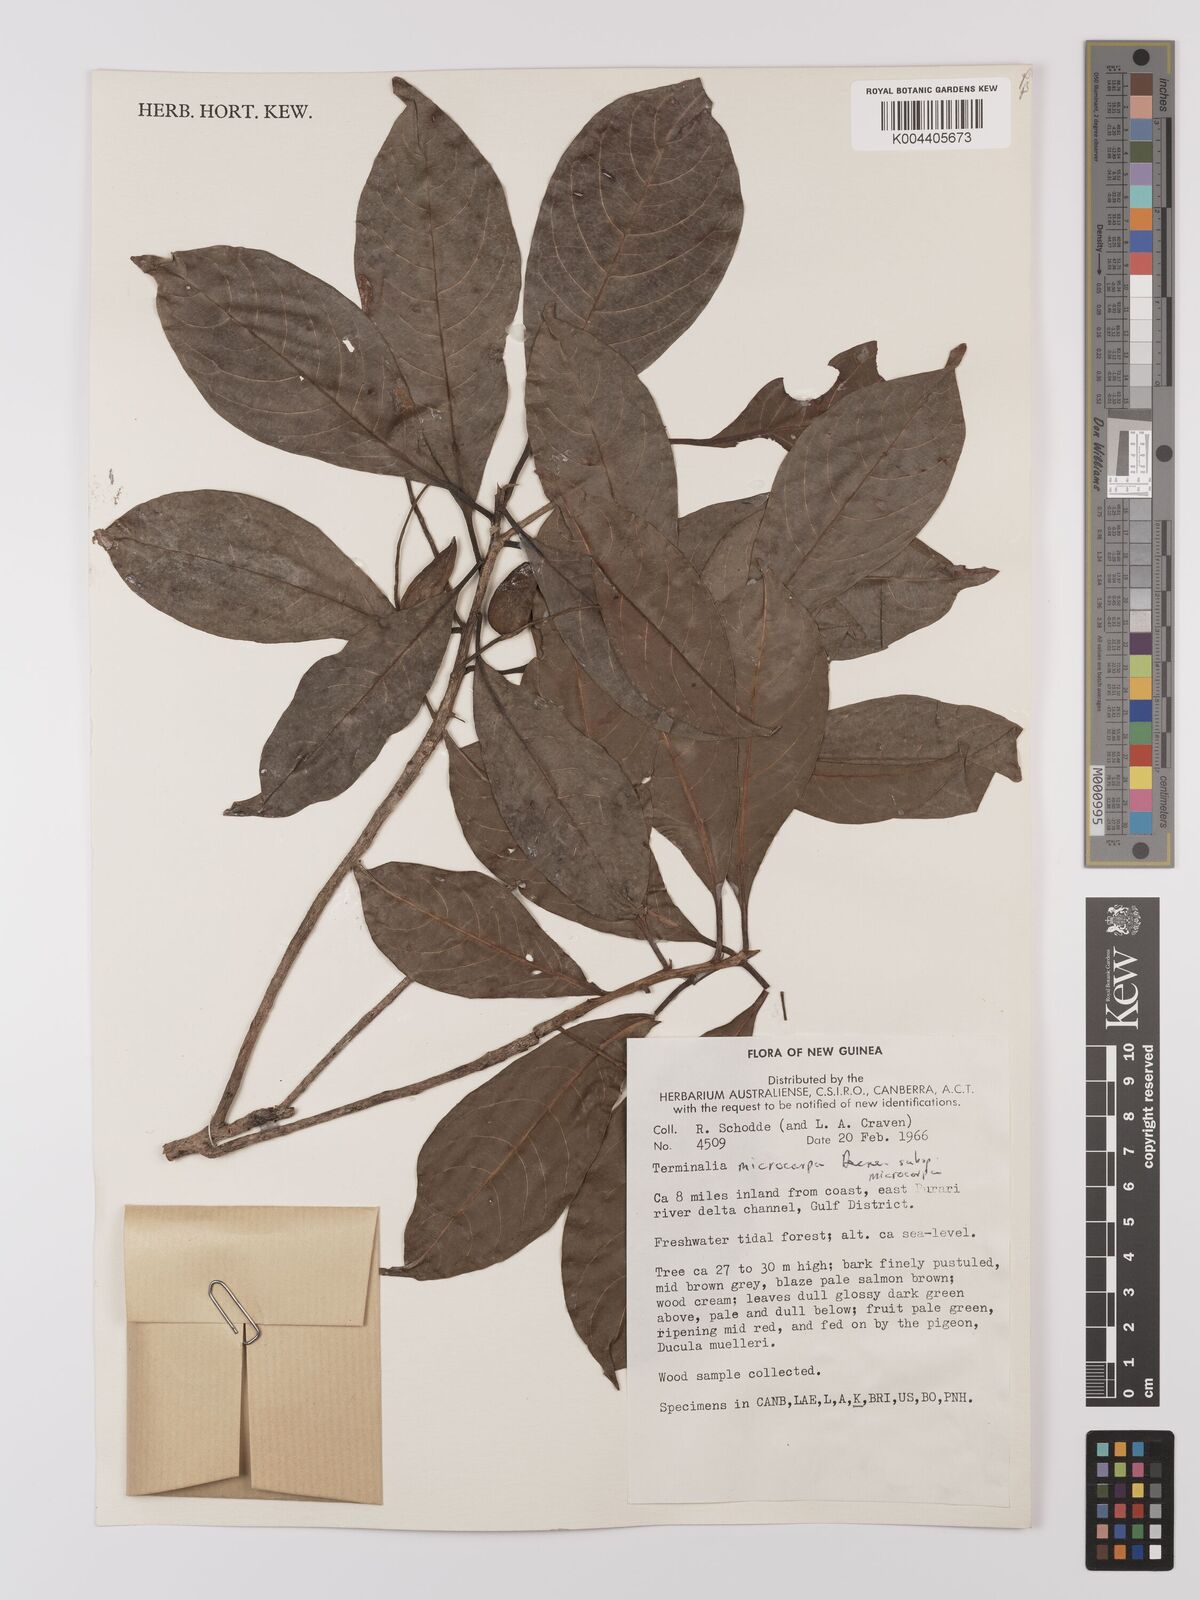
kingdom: Plantae
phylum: Tracheophyta
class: Magnoliopsida
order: Myrtales
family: Combretaceae
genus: Terminalia
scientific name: Terminalia
